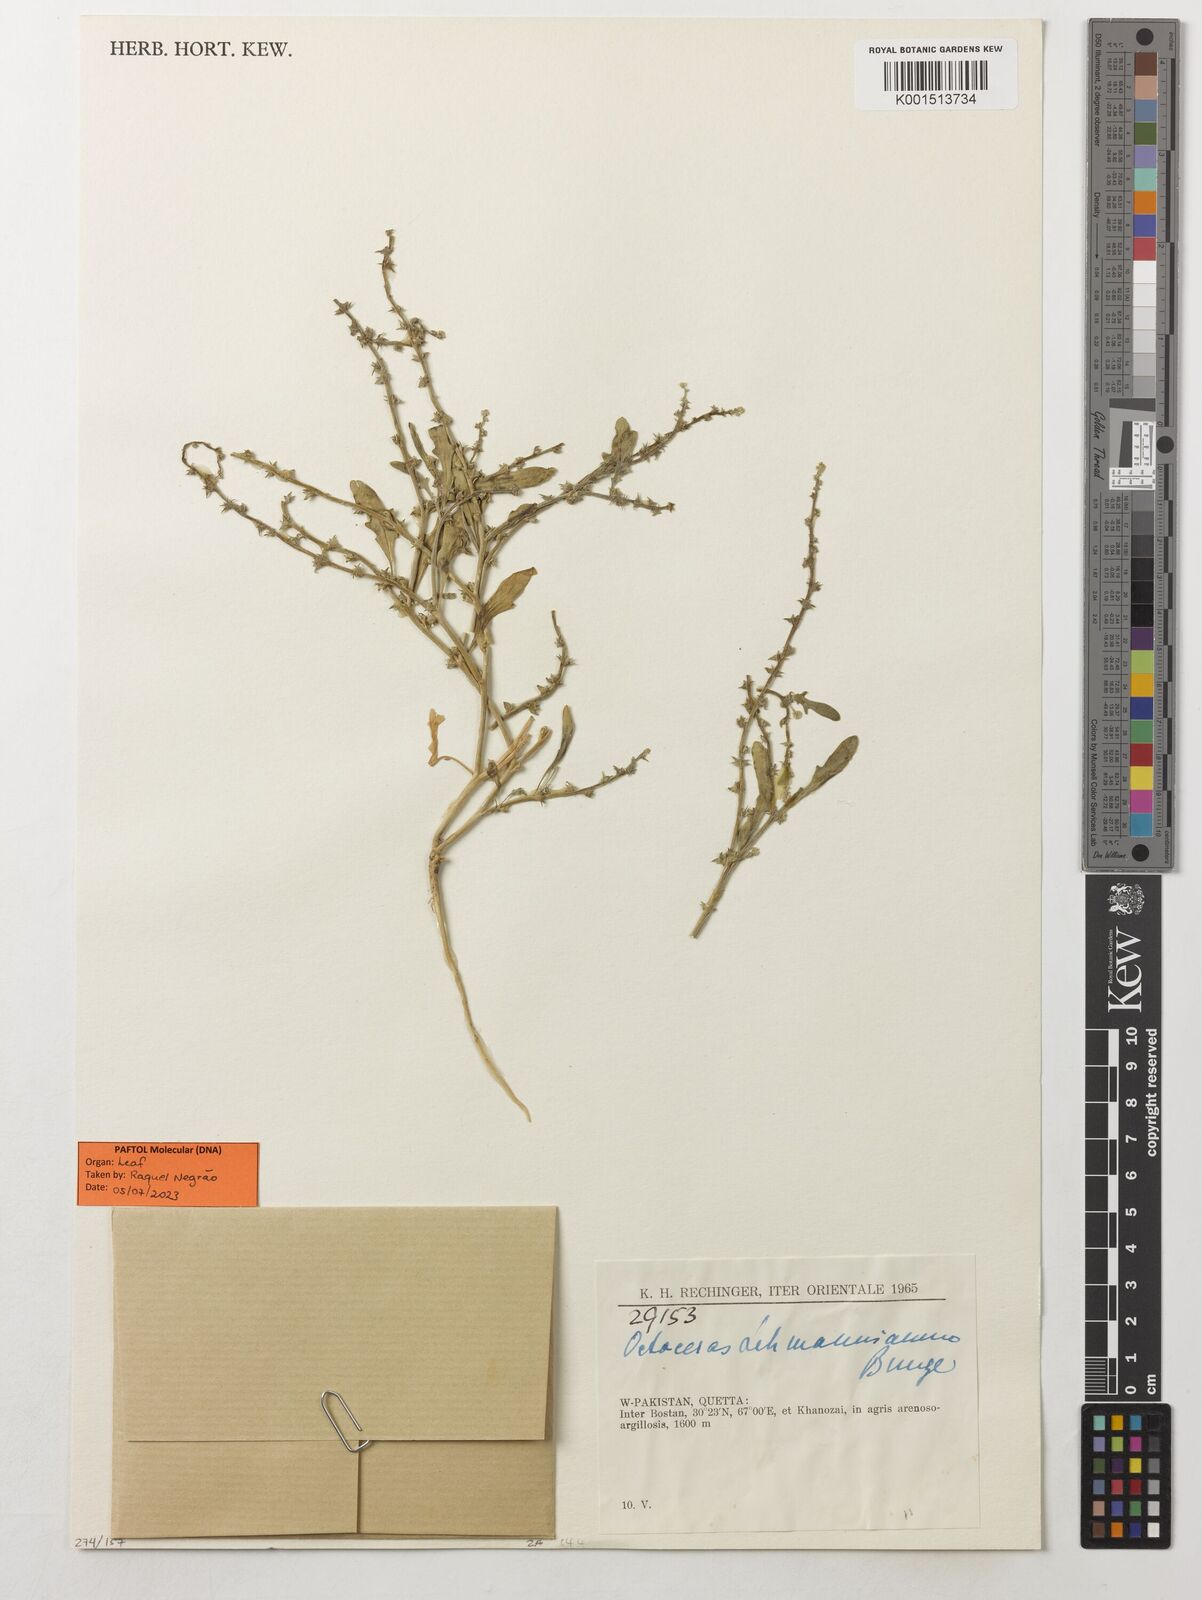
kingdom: Plantae
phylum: Tracheophyta
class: Magnoliopsida
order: Brassicales
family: Brassicaceae
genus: Octoceras
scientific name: Octoceras lehmannianum
